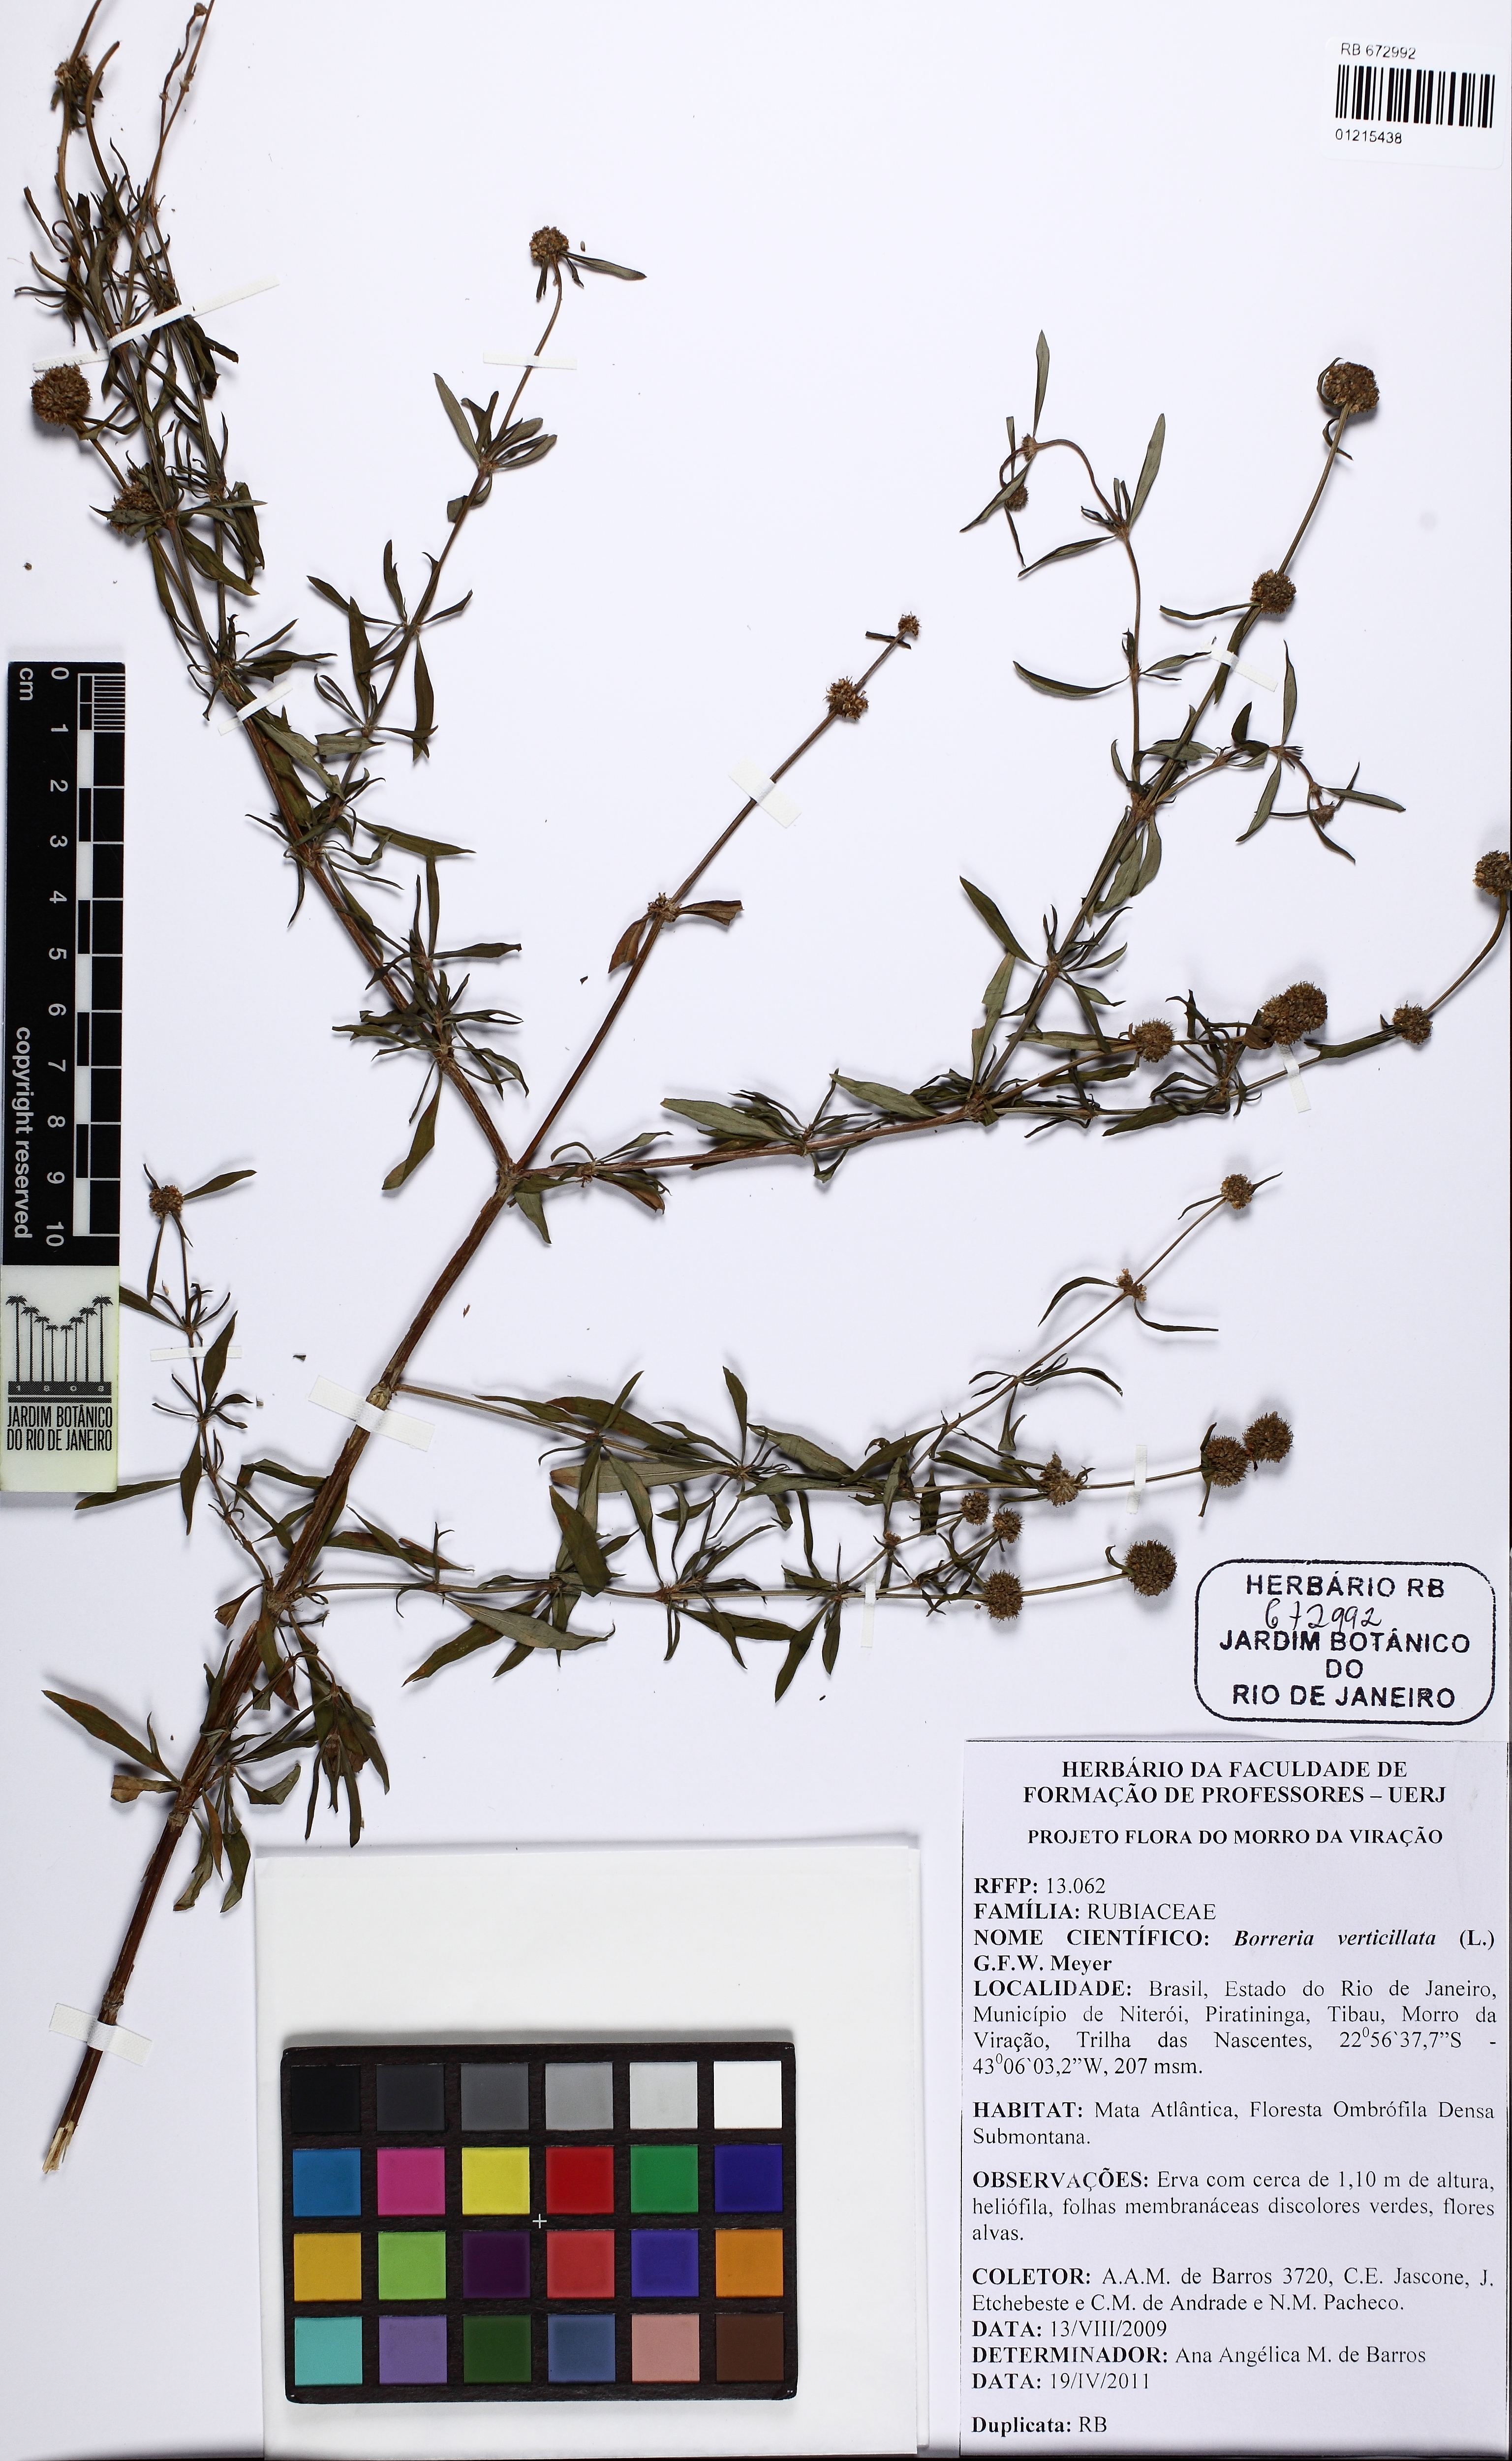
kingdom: Plantae
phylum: Tracheophyta
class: Magnoliopsida
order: Gentianales
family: Rubiaceae
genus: Spermacoce
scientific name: Spermacoce verticillata
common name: Shrubby false buttonweed
